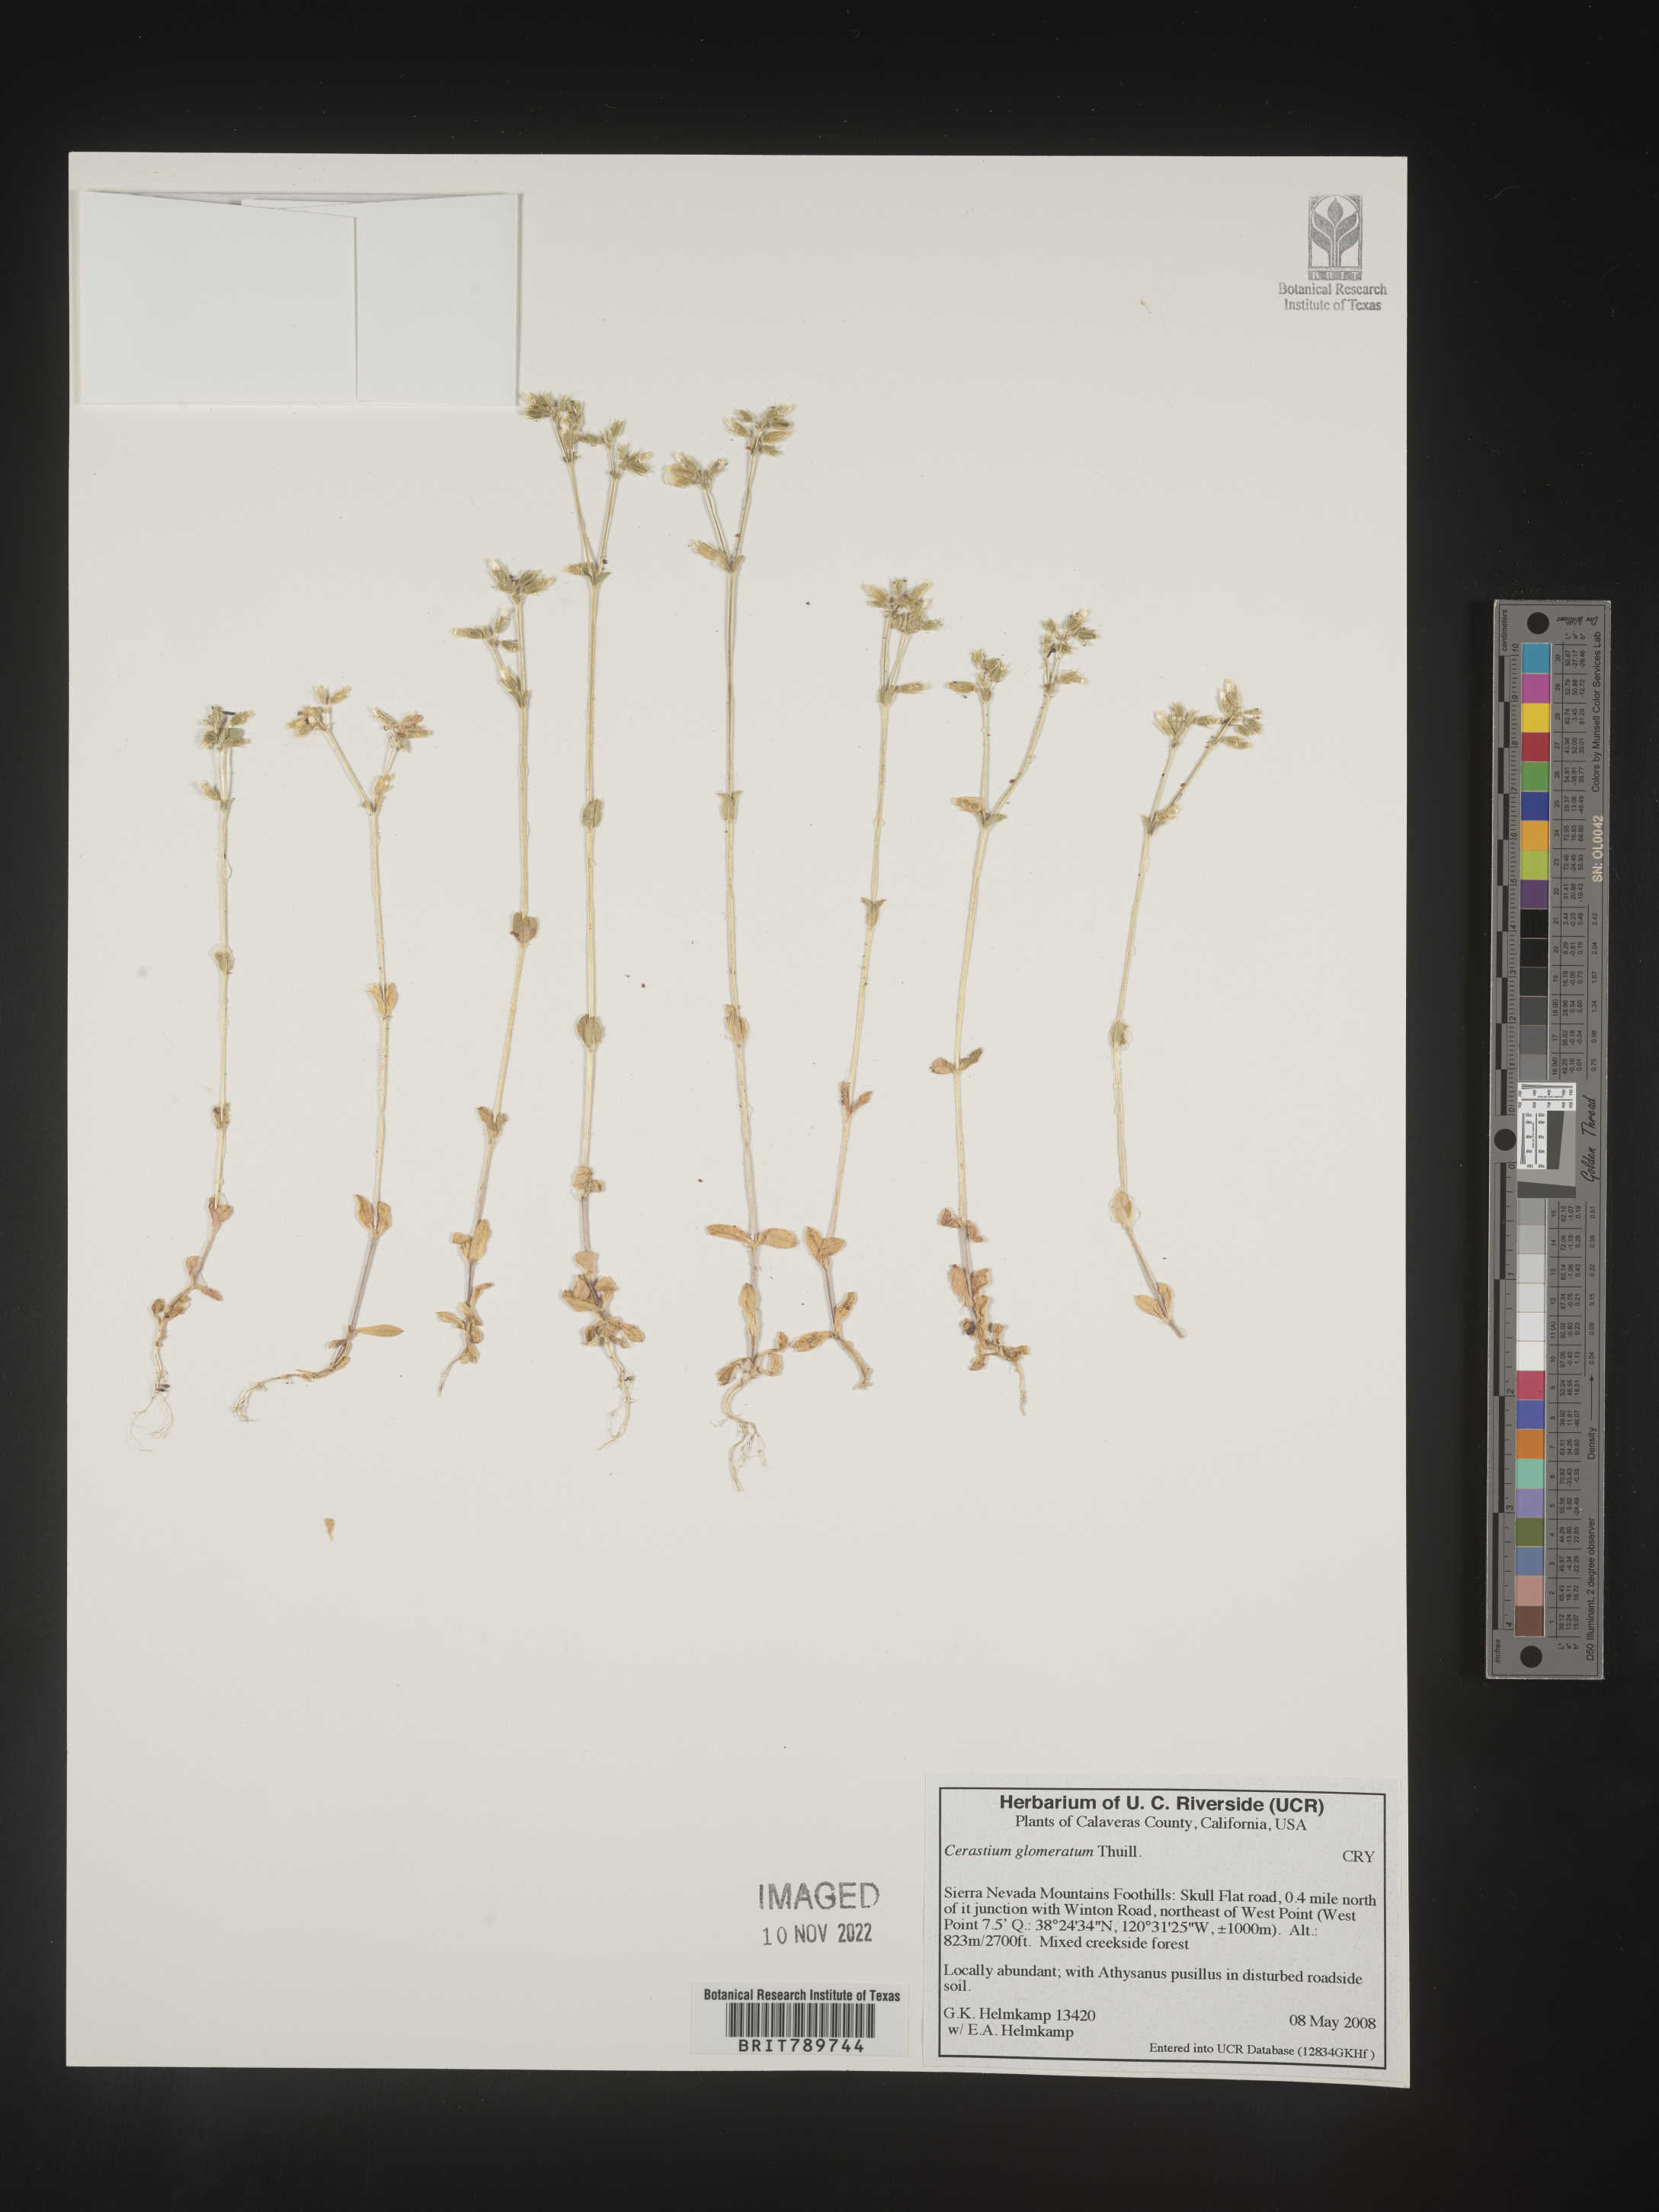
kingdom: Plantae
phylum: Tracheophyta
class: Magnoliopsida
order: Caryophyllales
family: Caryophyllaceae
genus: Cerastium
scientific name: Cerastium glomeratum
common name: Sticky chickweed
